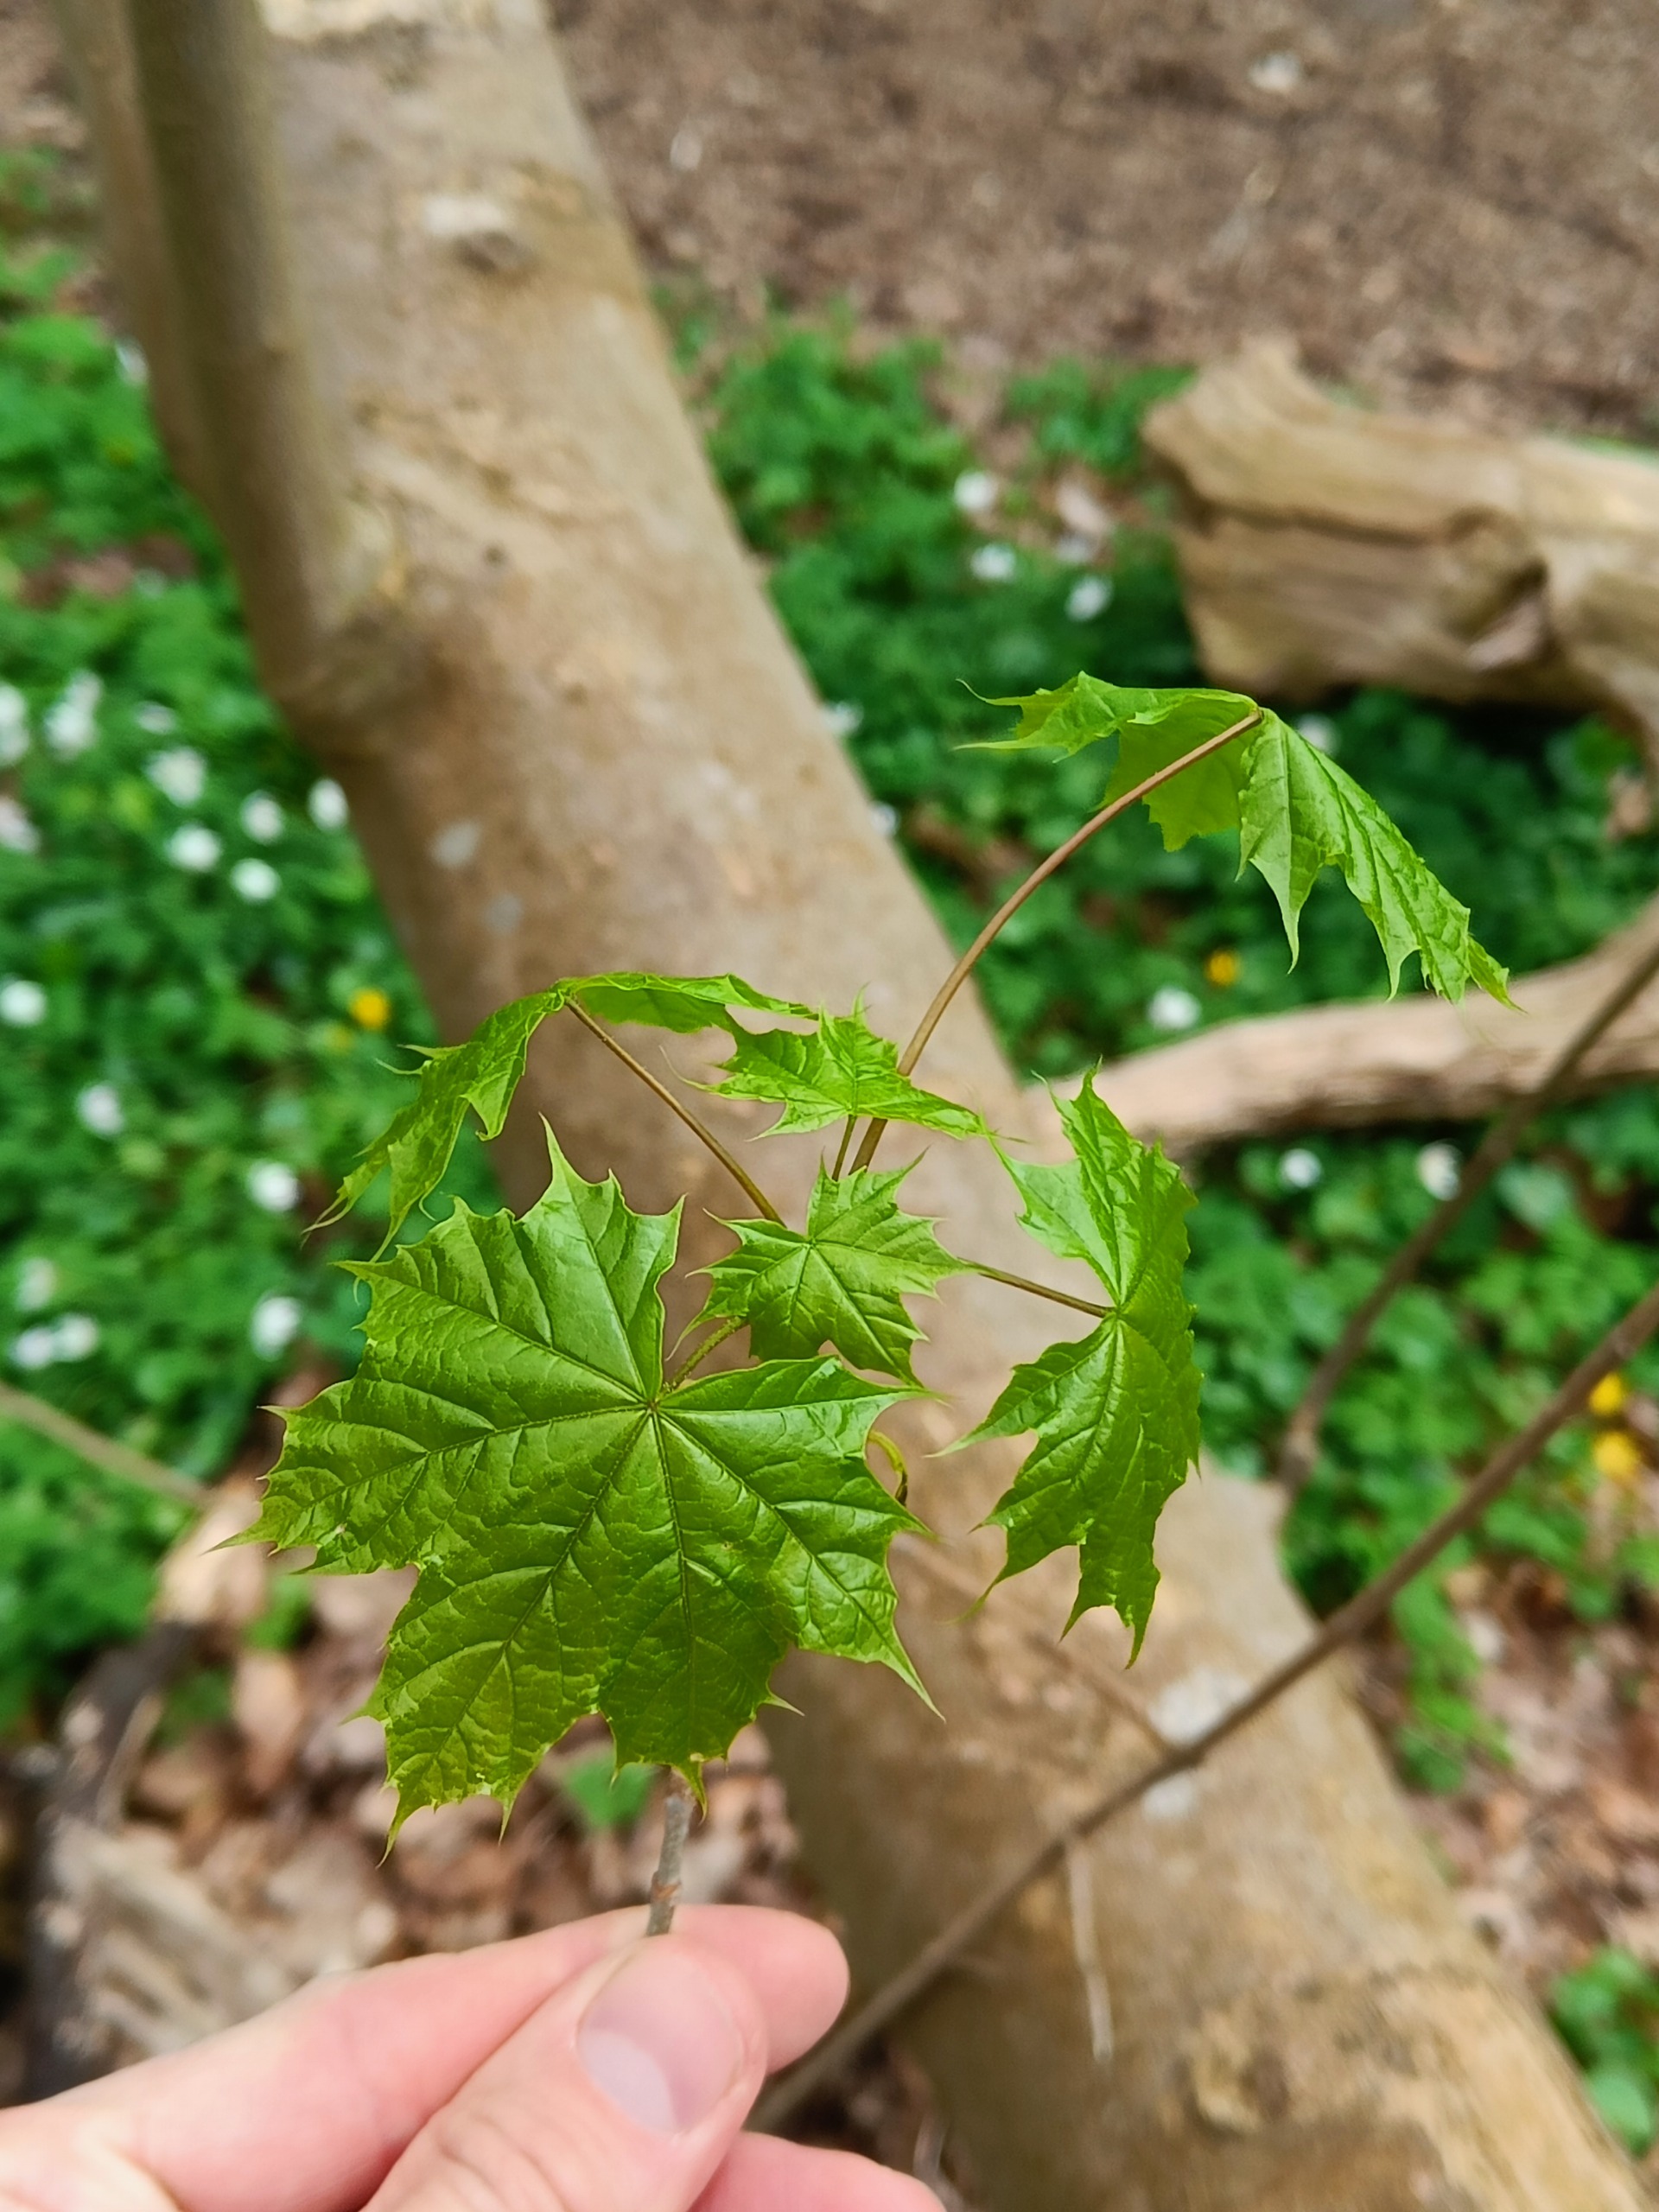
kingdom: Plantae
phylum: Tracheophyta
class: Magnoliopsida
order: Sapindales
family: Sapindaceae
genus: Acer
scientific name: Acer platanoides
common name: Spids-løn
